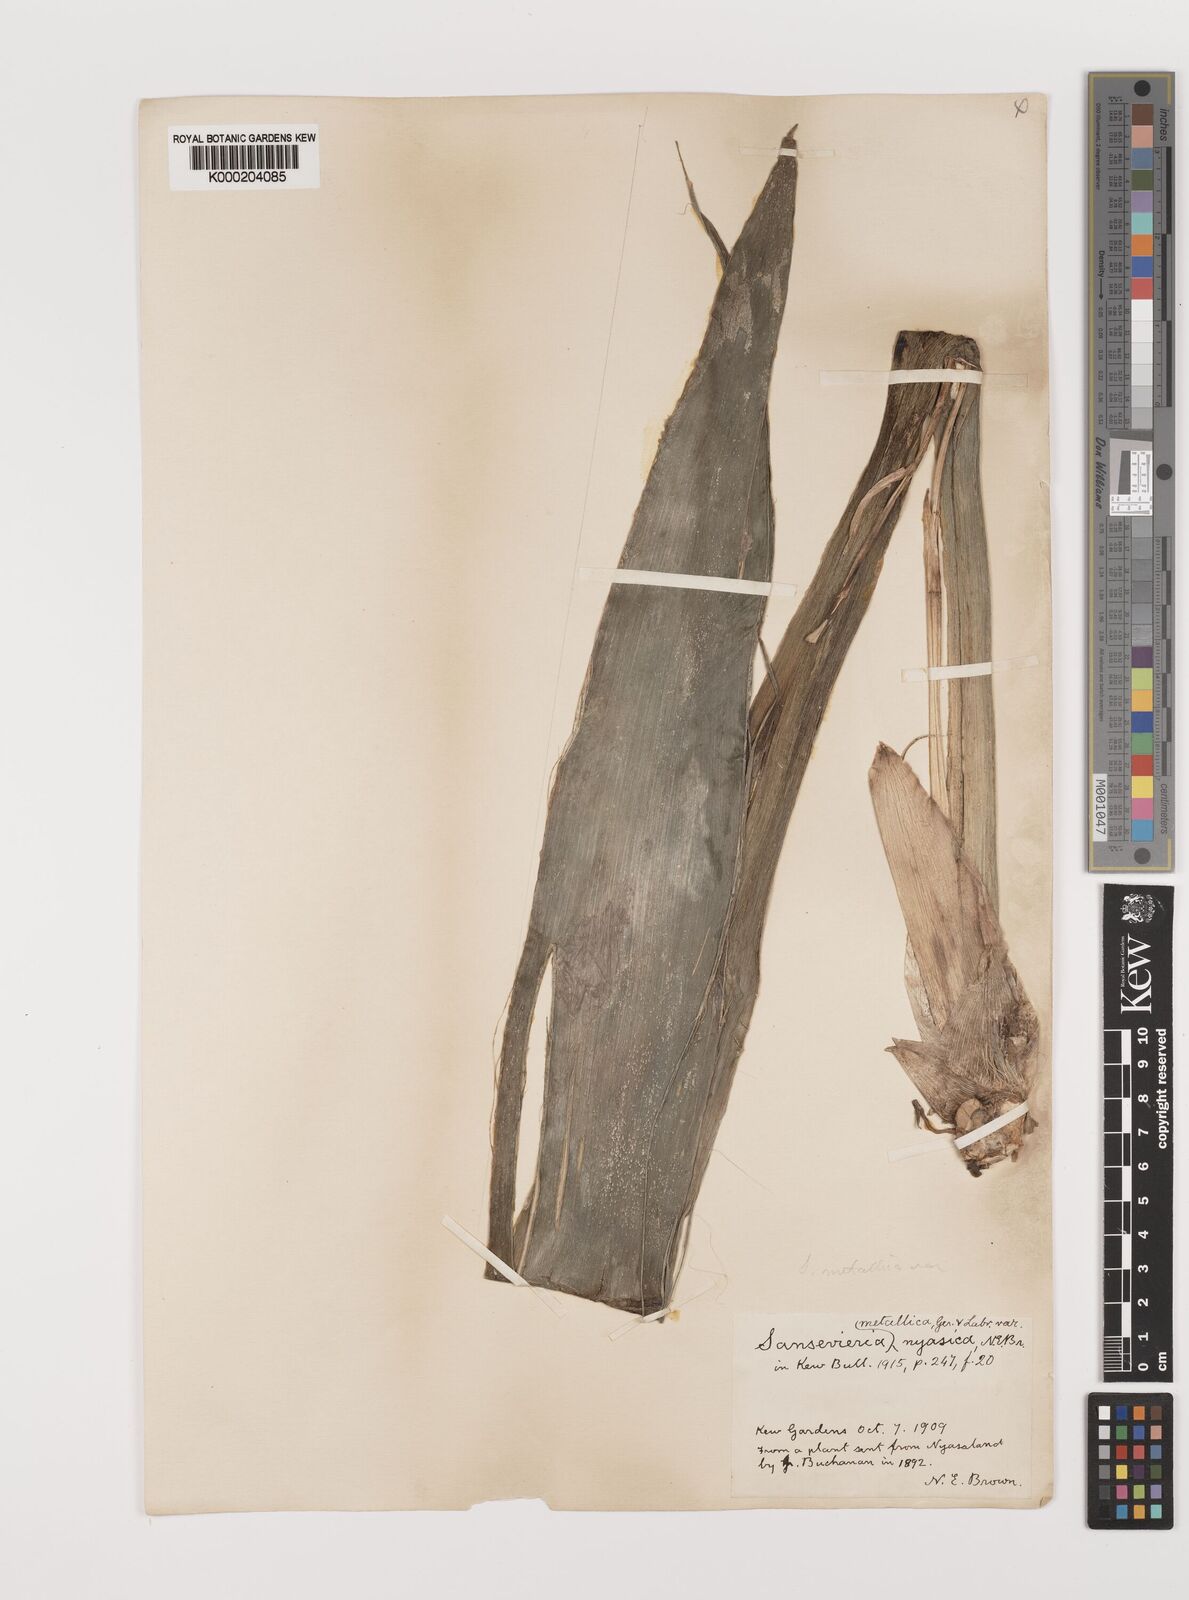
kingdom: Plantae
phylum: Tracheophyta
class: Liliopsida
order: Asparagales
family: Asparagaceae
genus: Dracaena
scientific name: Dracaena
